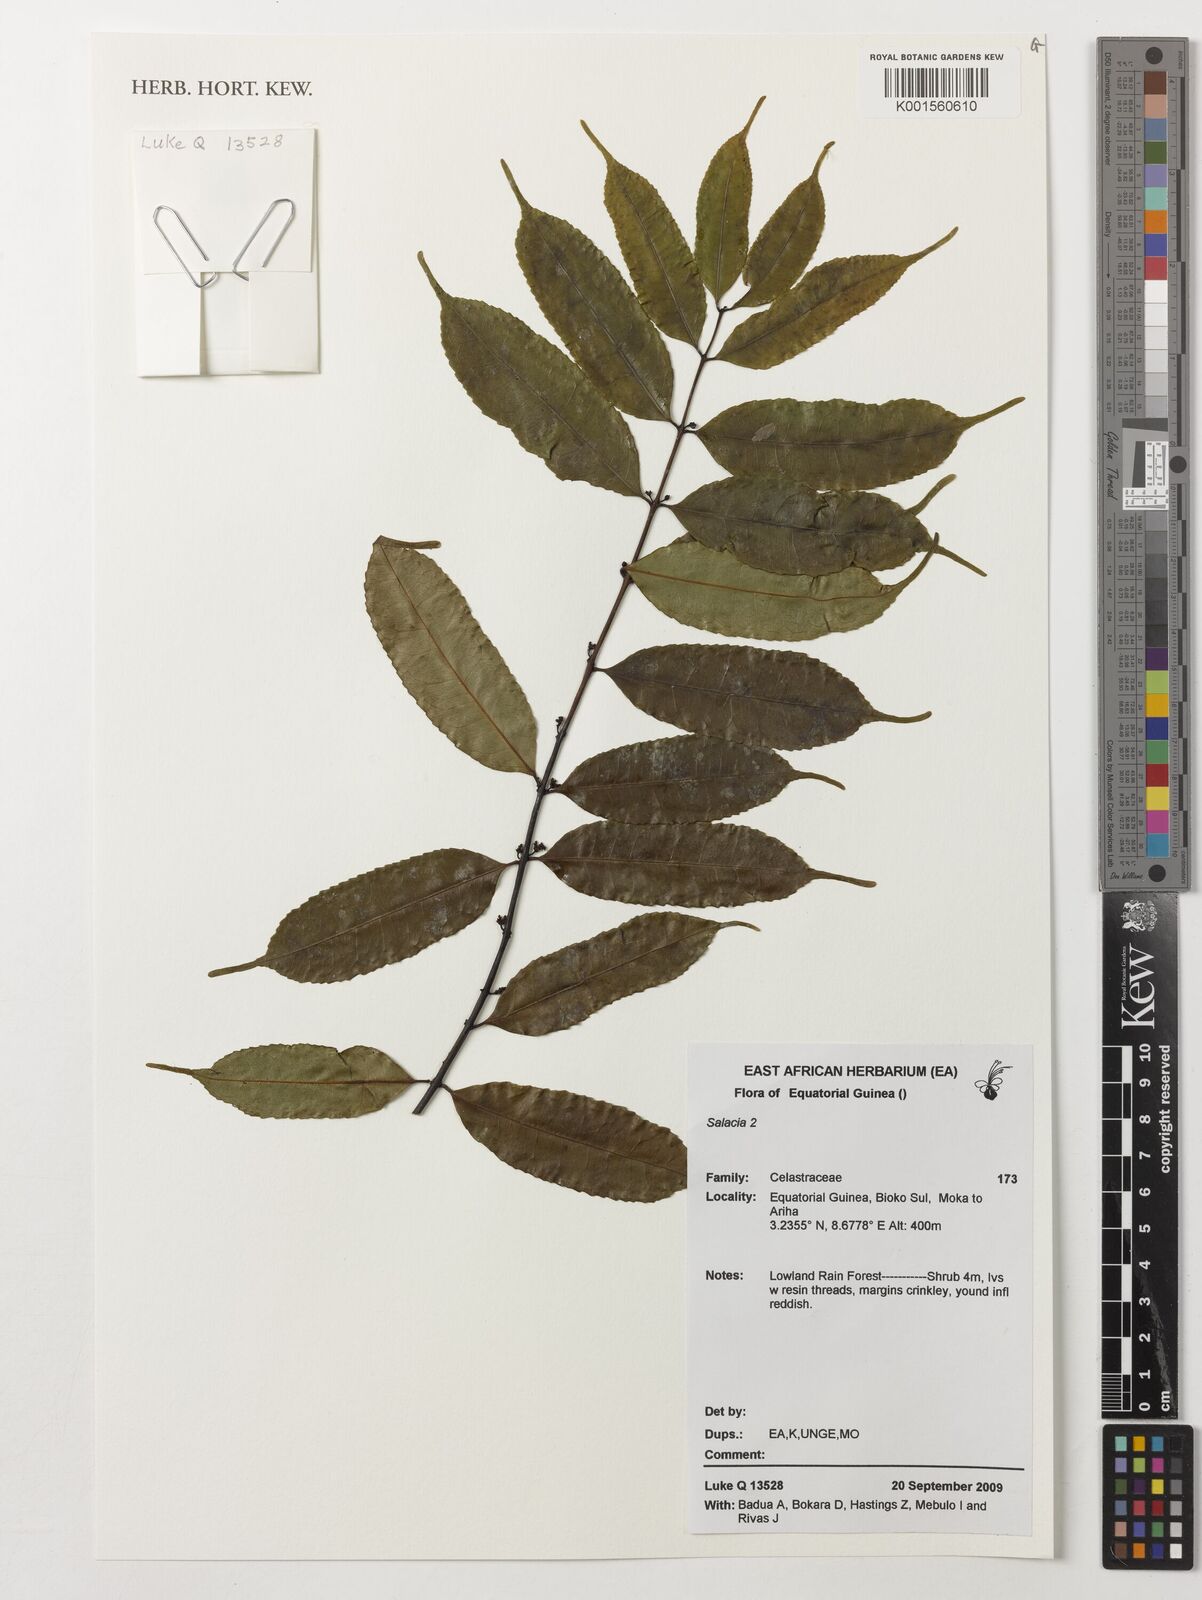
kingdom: Plantae
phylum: Tracheophyta
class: Magnoliopsida
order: Celastrales
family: Celastraceae
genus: Salacia
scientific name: Salacia
